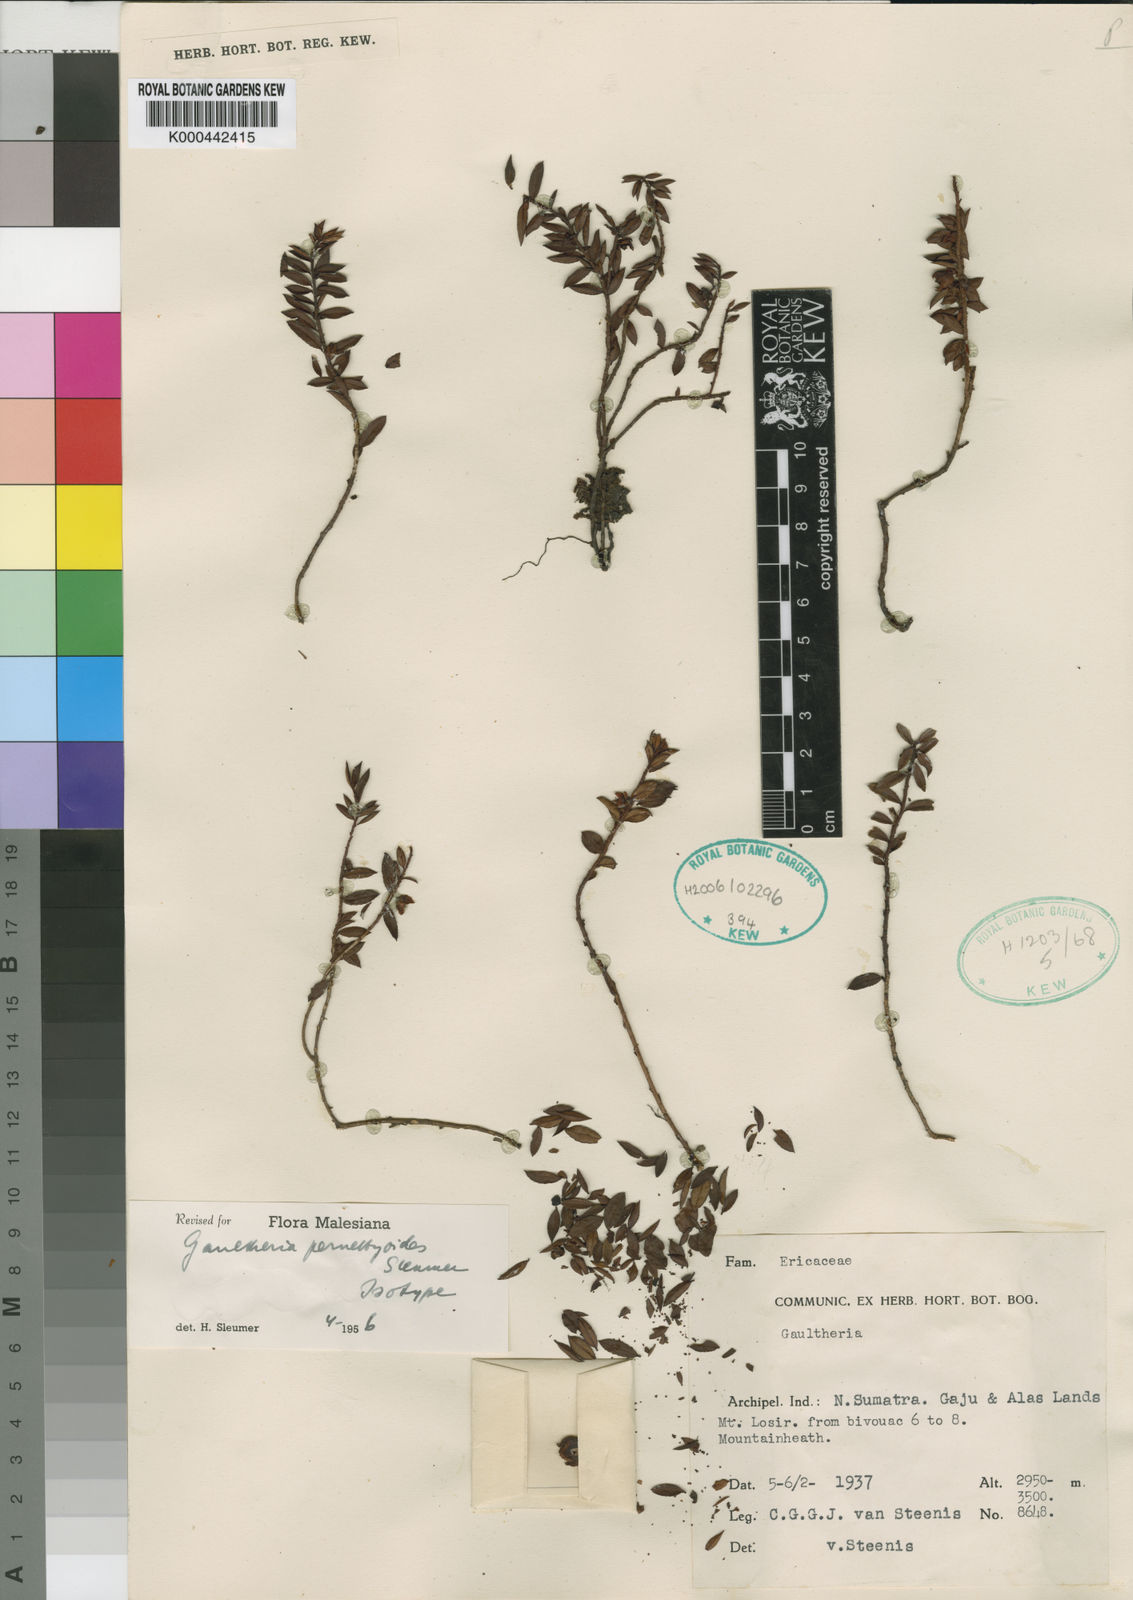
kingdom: Plantae
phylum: Tracheophyta
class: Magnoliopsida
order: Ericales
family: Ericaceae
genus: Gaultheria
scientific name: Gaultheria pernettyoides
